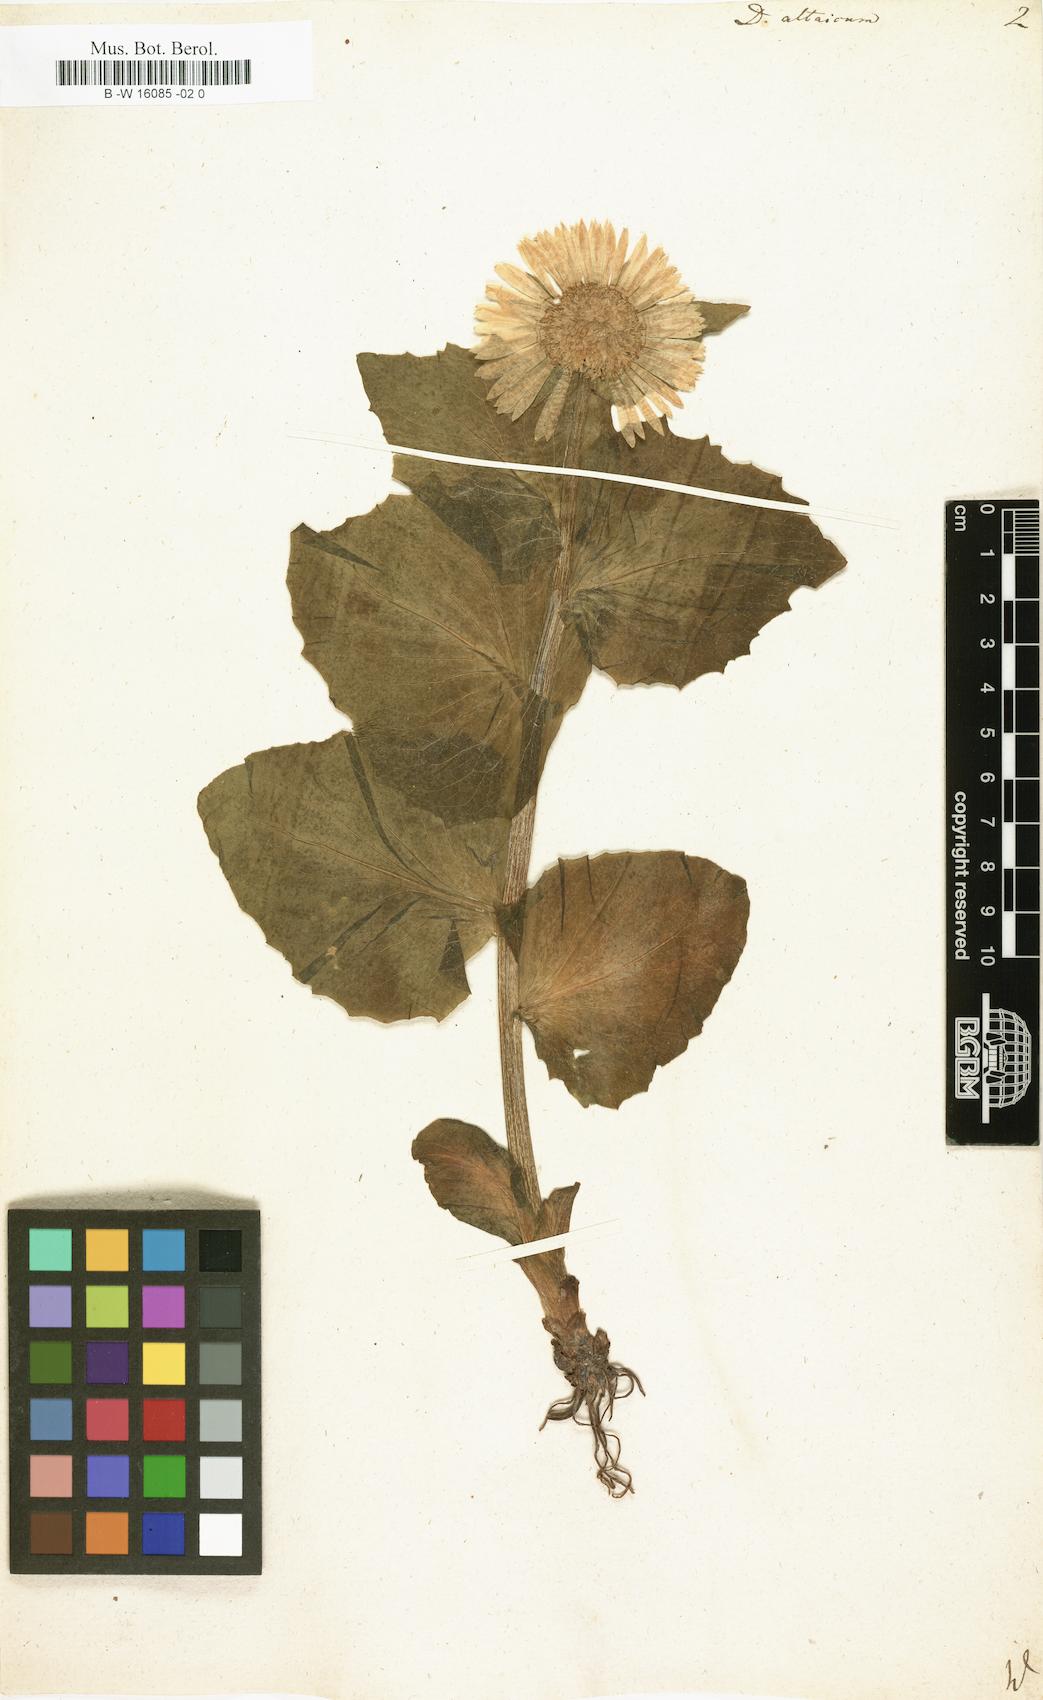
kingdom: Plantae
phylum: Tracheophyta
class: Magnoliopsida
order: Asterales
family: Asteraceae
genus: Doronicum
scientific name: Doronicum altaicum
